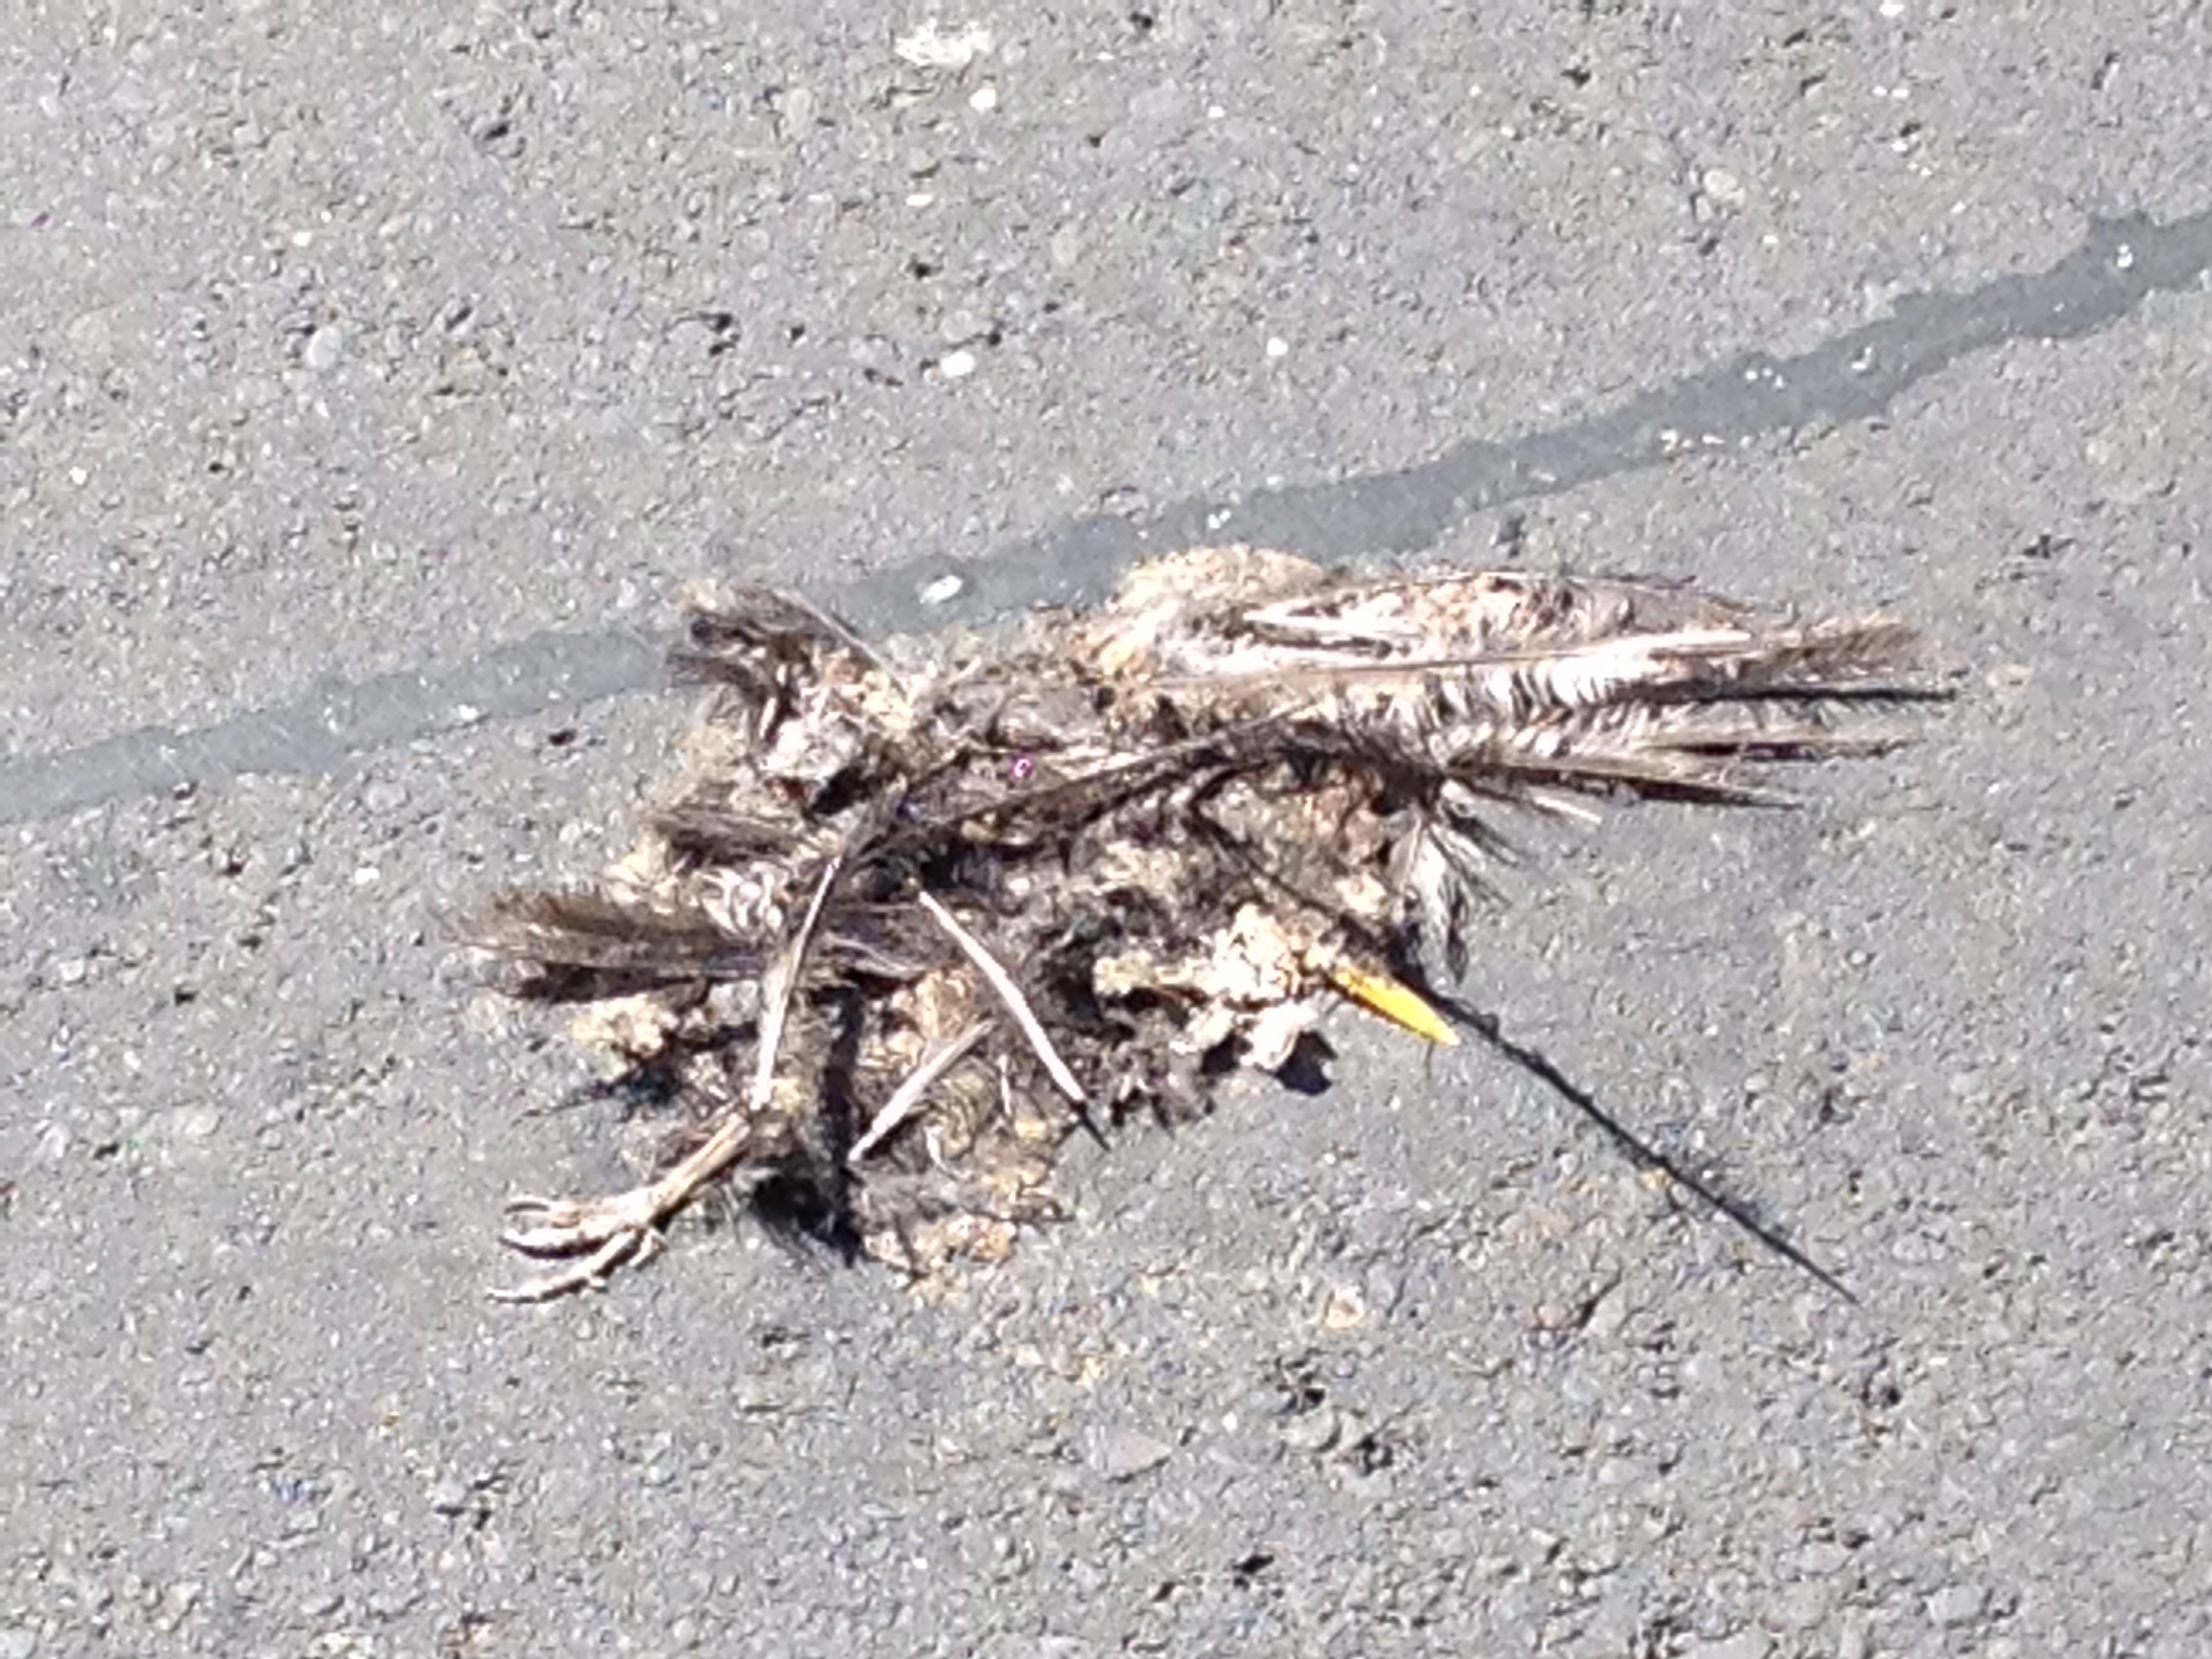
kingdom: Animalia
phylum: Chordata
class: Aves
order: Passeriformes
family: Turdidae
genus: Turdus
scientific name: Turdus merula
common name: Common blackbird
